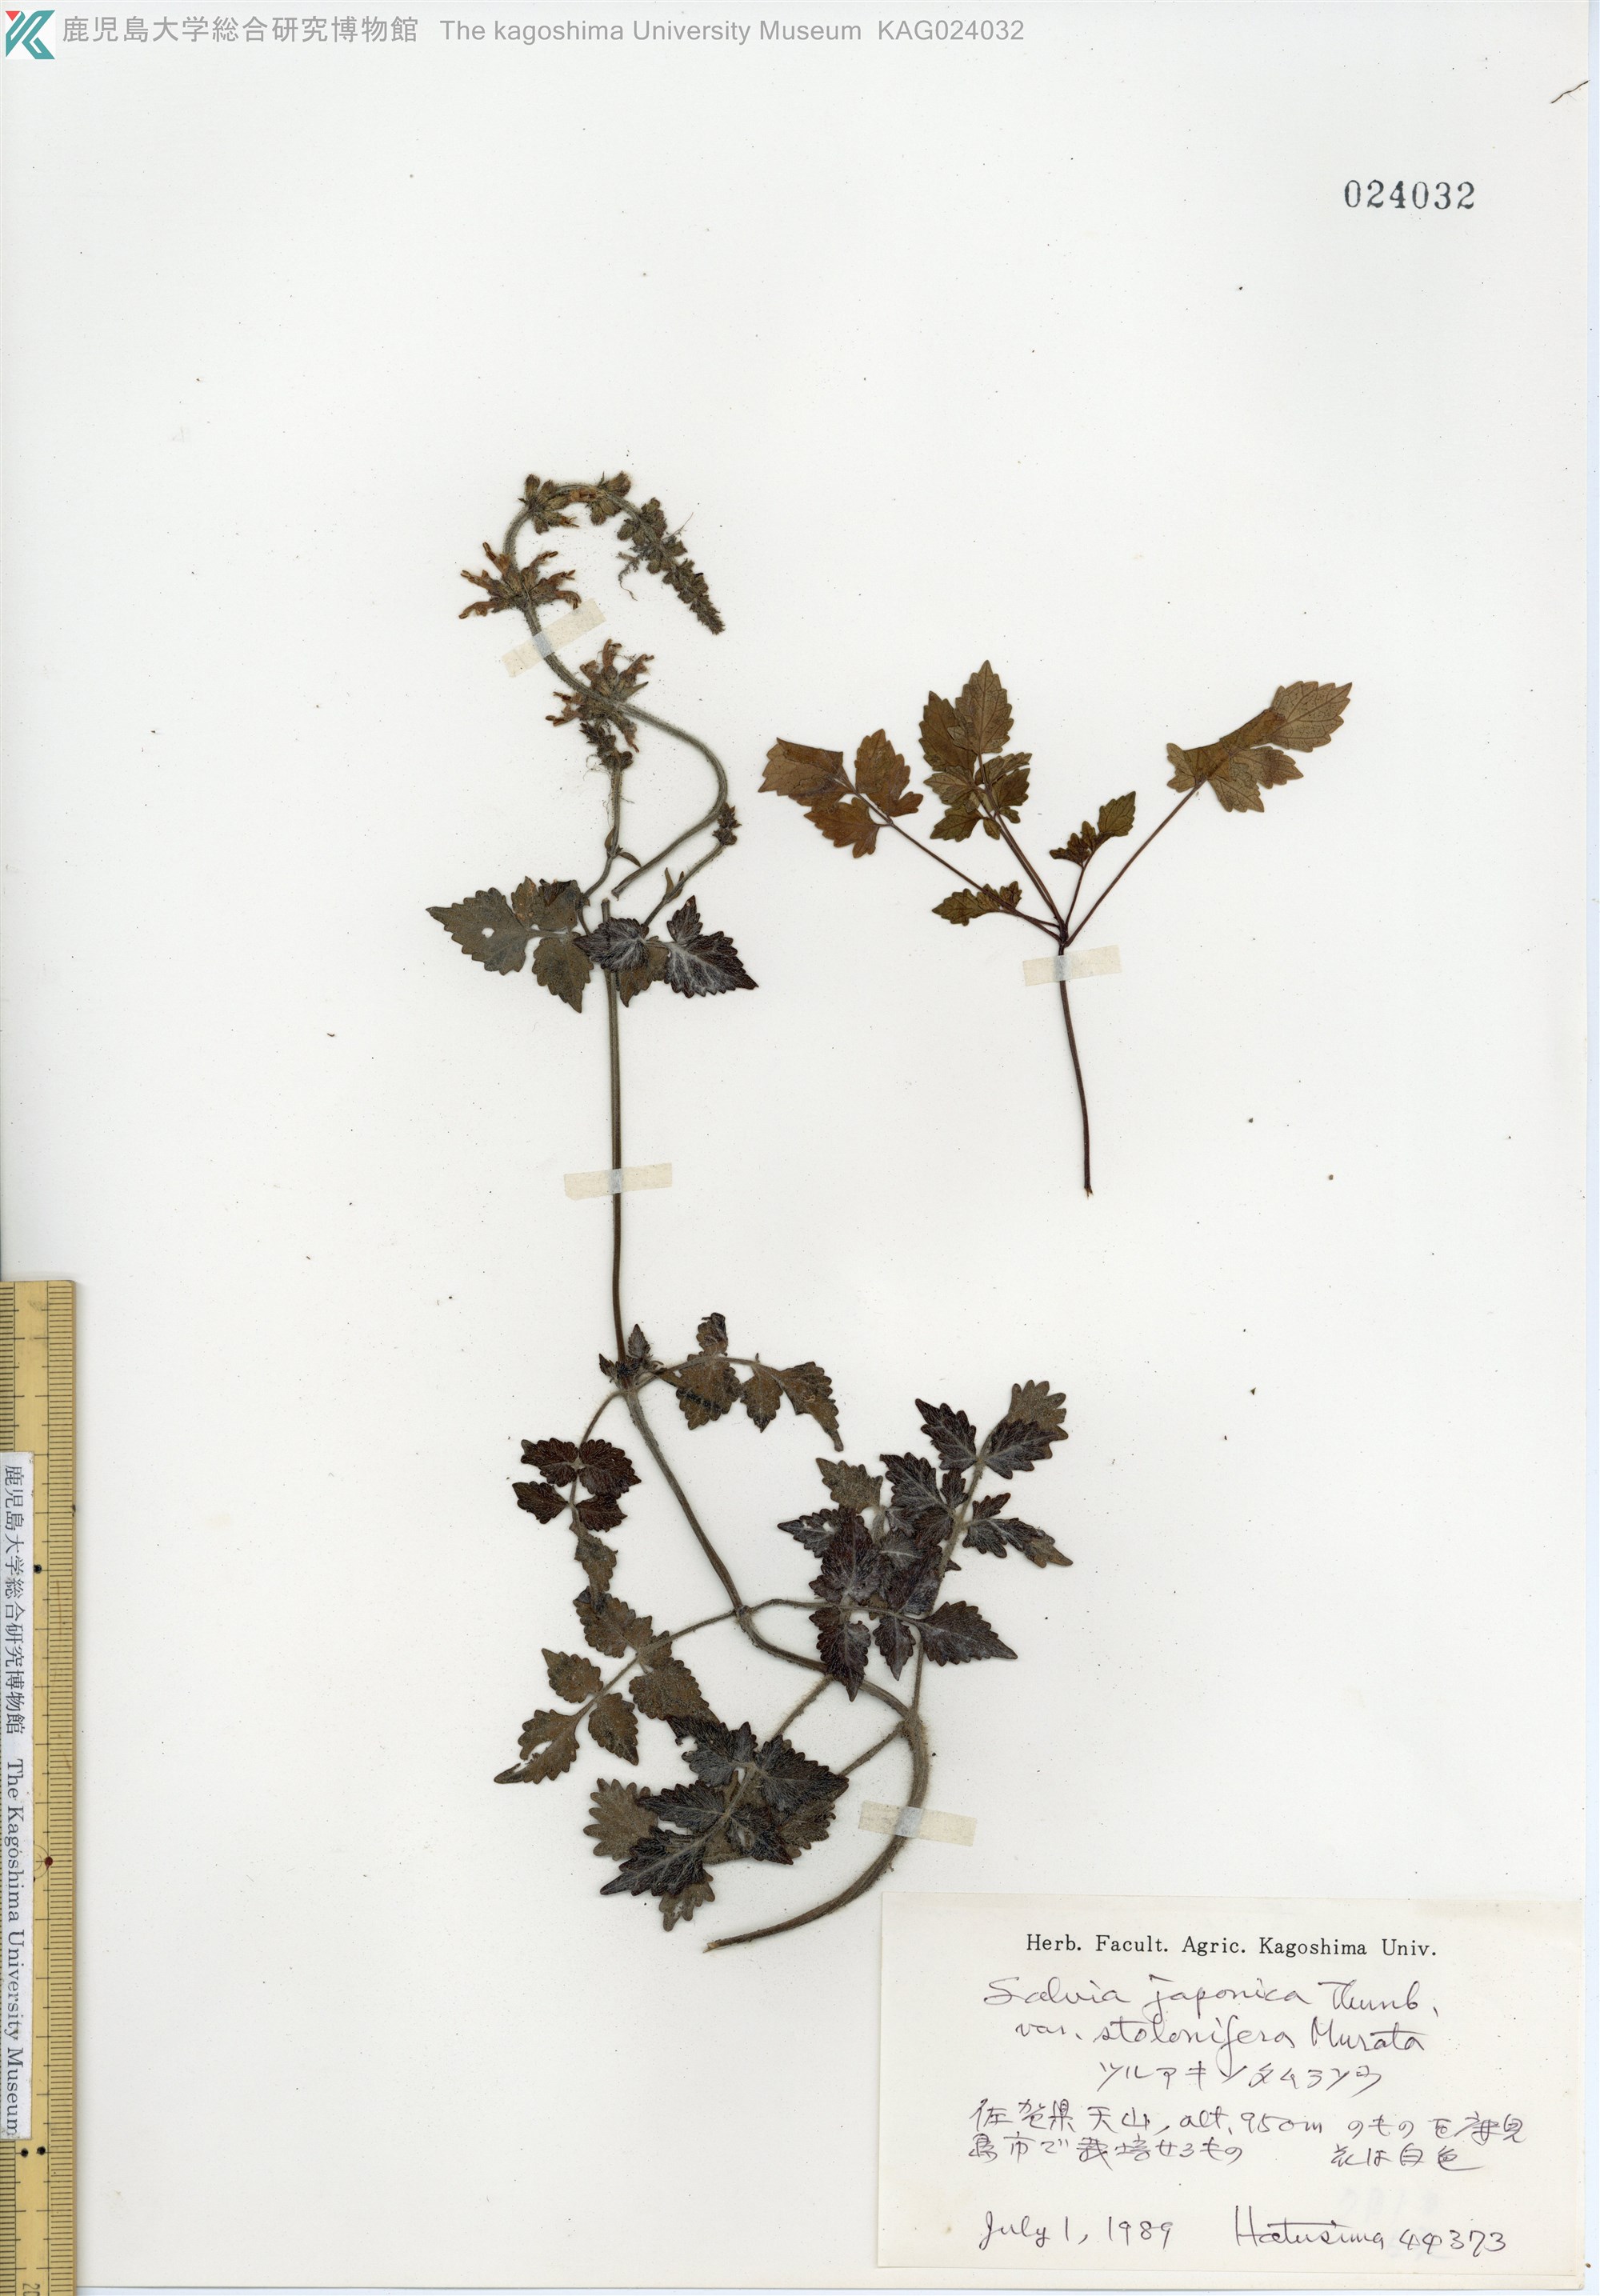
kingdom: Plantae
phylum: Tracheophyta
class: Magnoliopsida
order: Lamiales
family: Lamiaceae
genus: Salvia
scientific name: Salvia
